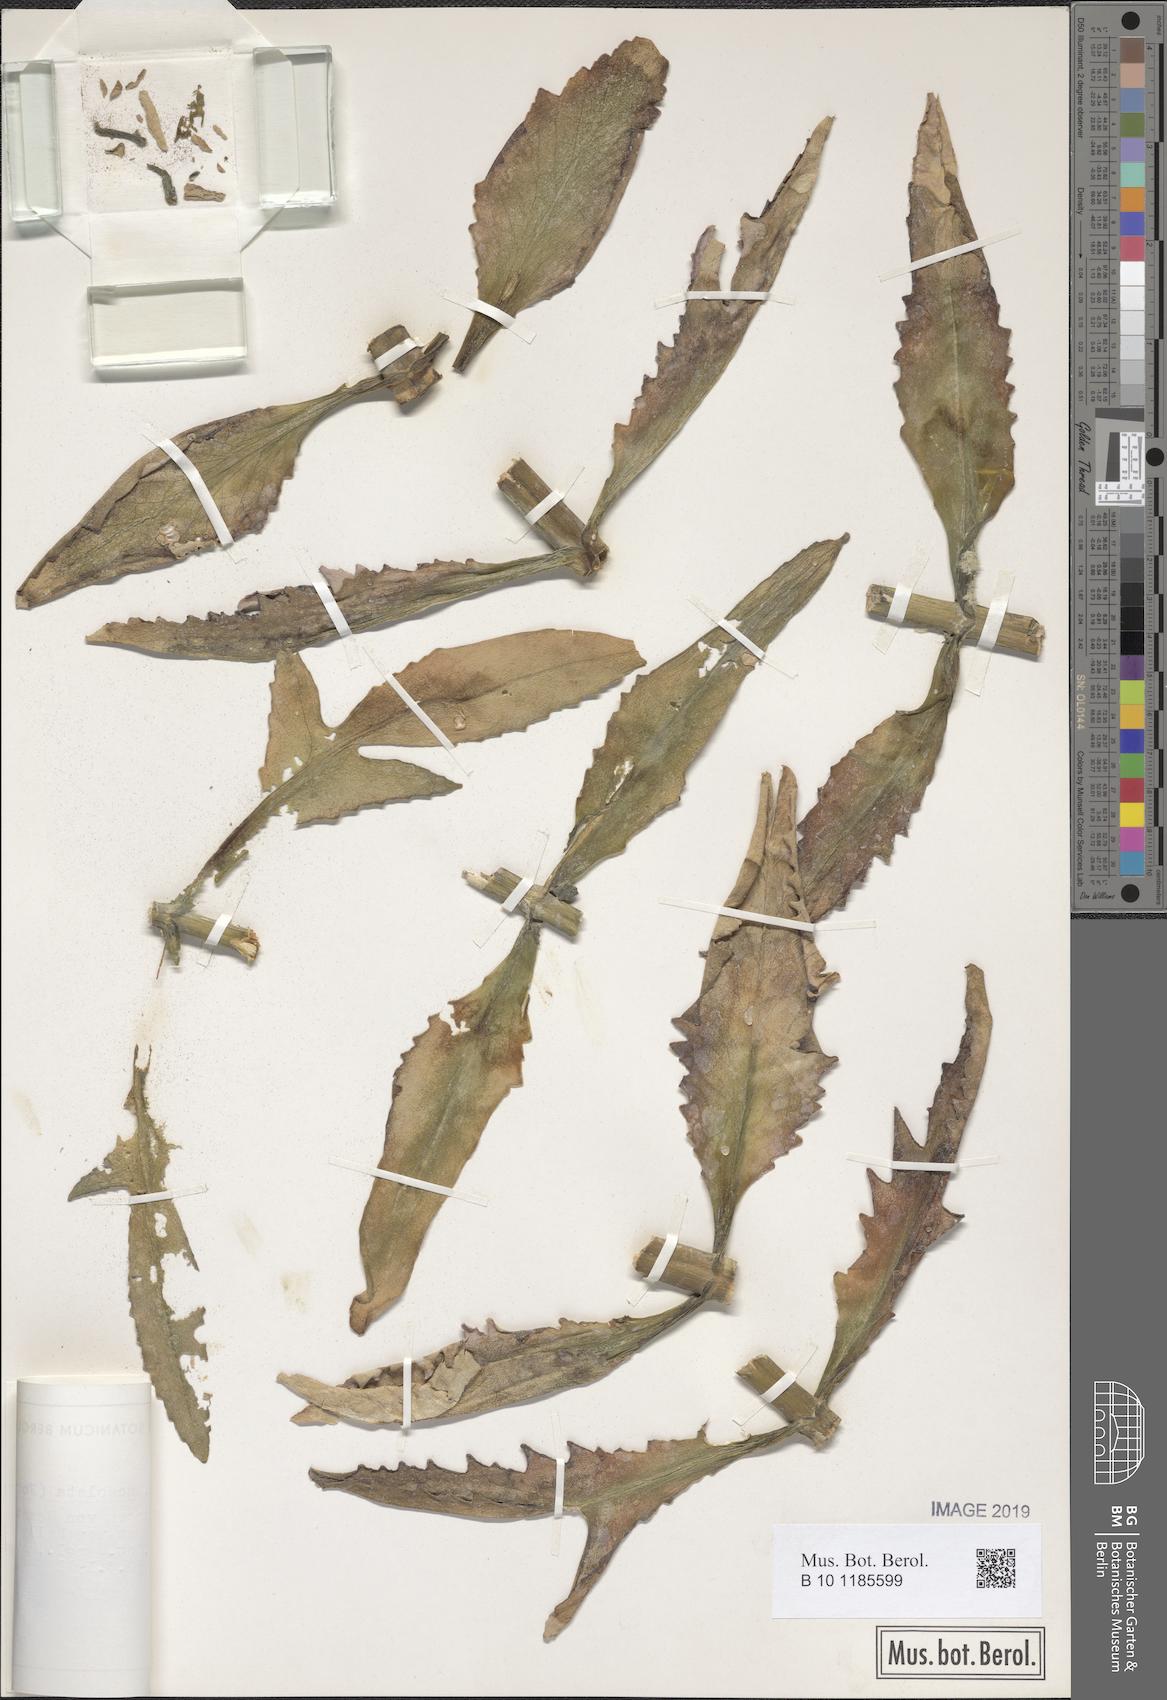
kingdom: Plantae
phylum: Tracheophyta
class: Magnoliopsida
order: Saxifragales
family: Crassulaceae
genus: Kalanchoe
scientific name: Kalanchoe lanceolata
